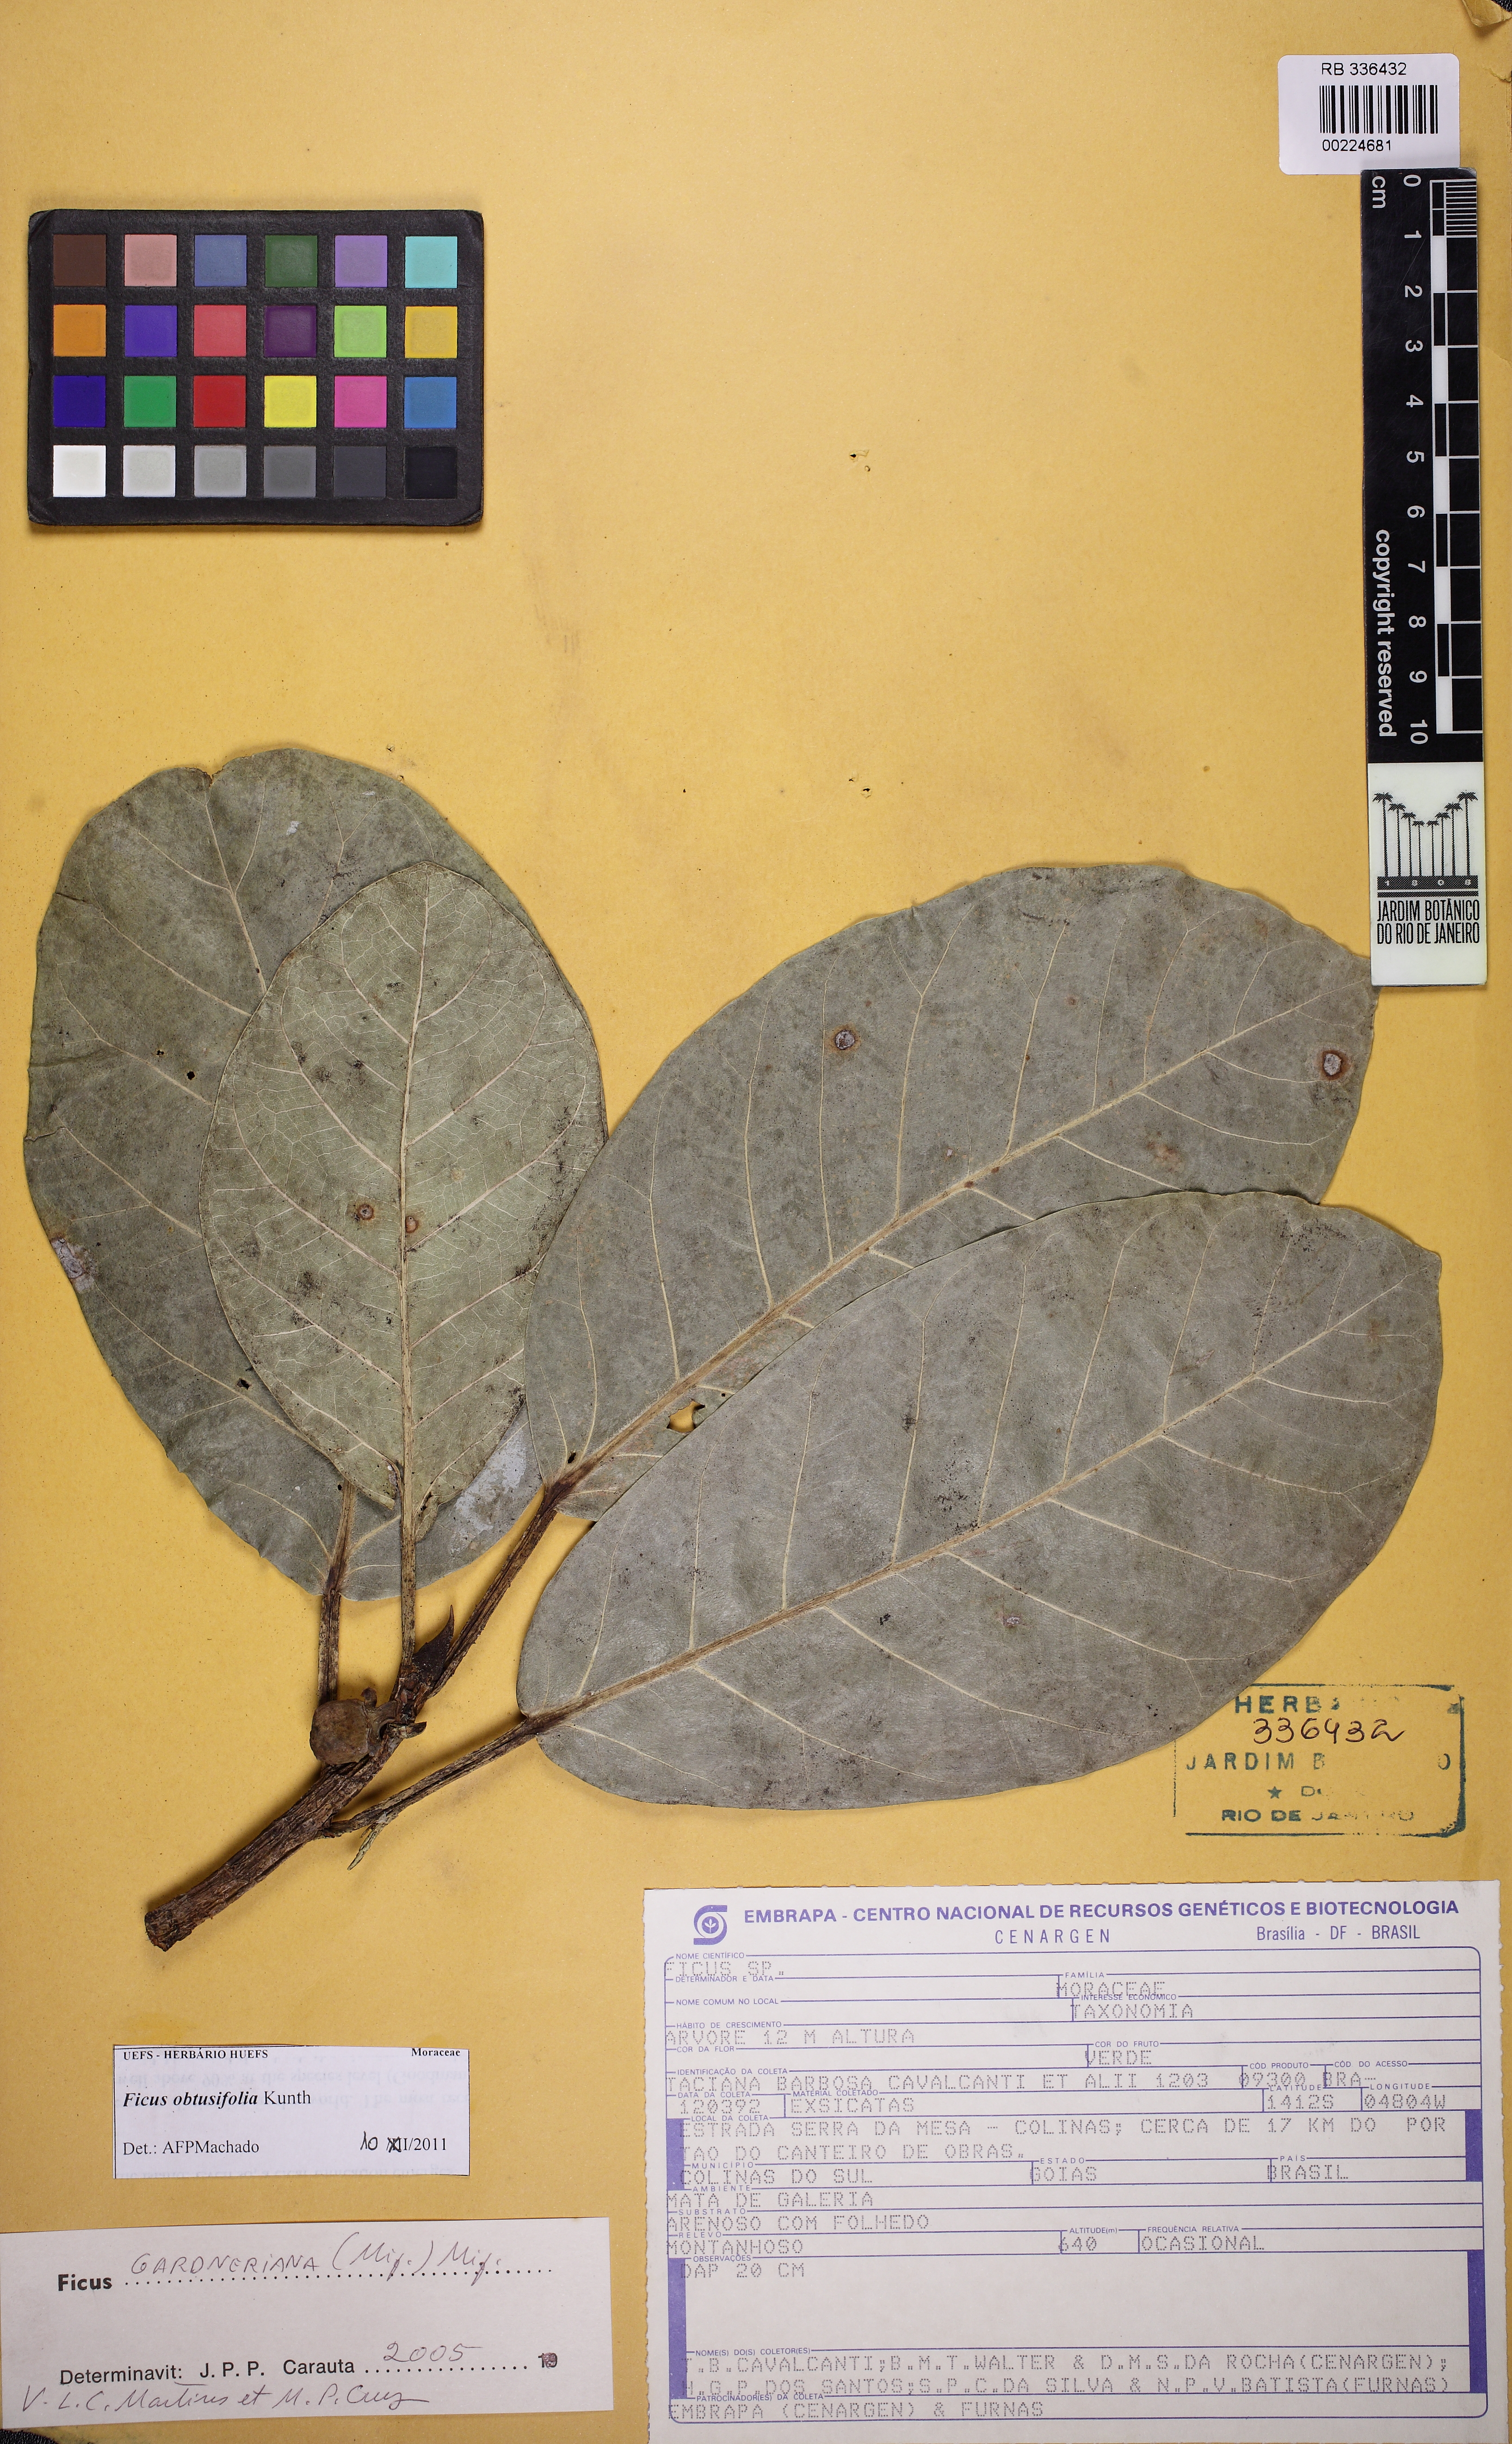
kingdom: Plantae
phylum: Tracheophyta
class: Magnoliopsida
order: Rosales
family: Moraceae
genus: Ficus
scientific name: Ficus obtusifolia
